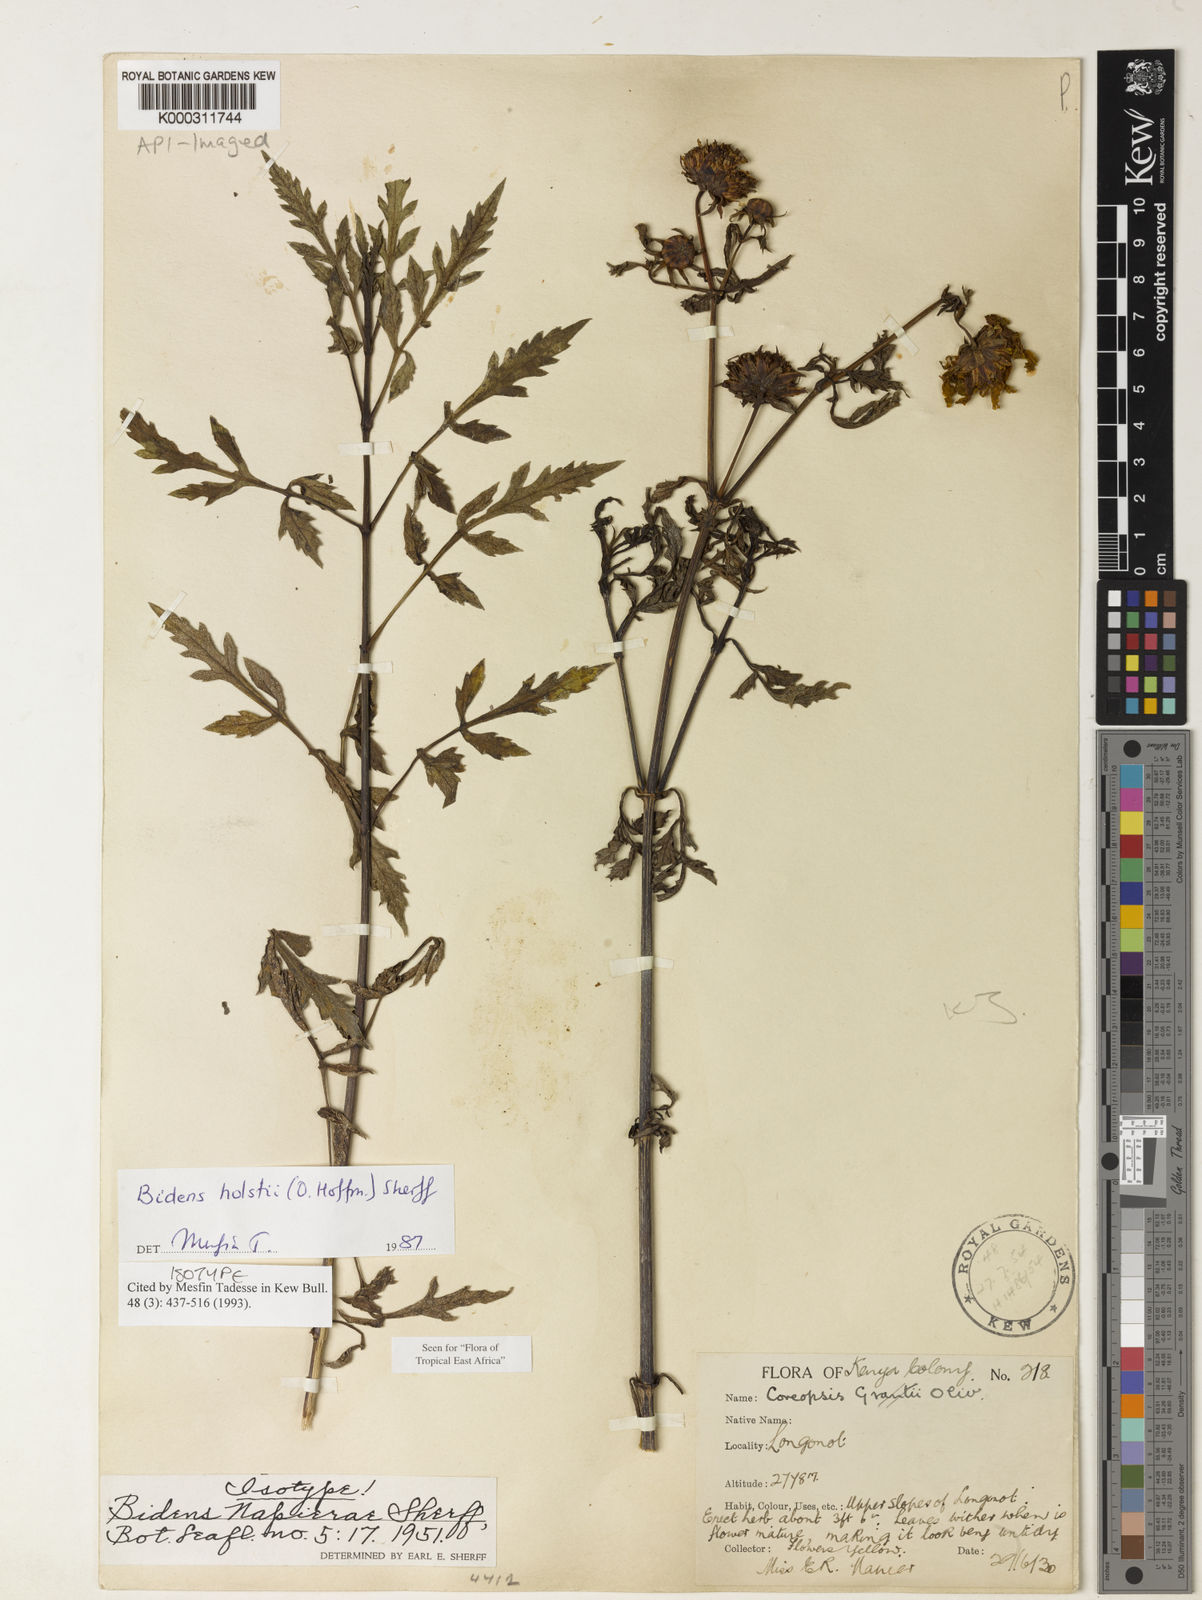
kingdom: Plantae
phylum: Tracheophyta
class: Magnoliopsida
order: Asterales
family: Asteraceae
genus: Bidens
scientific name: Bidens holstii
